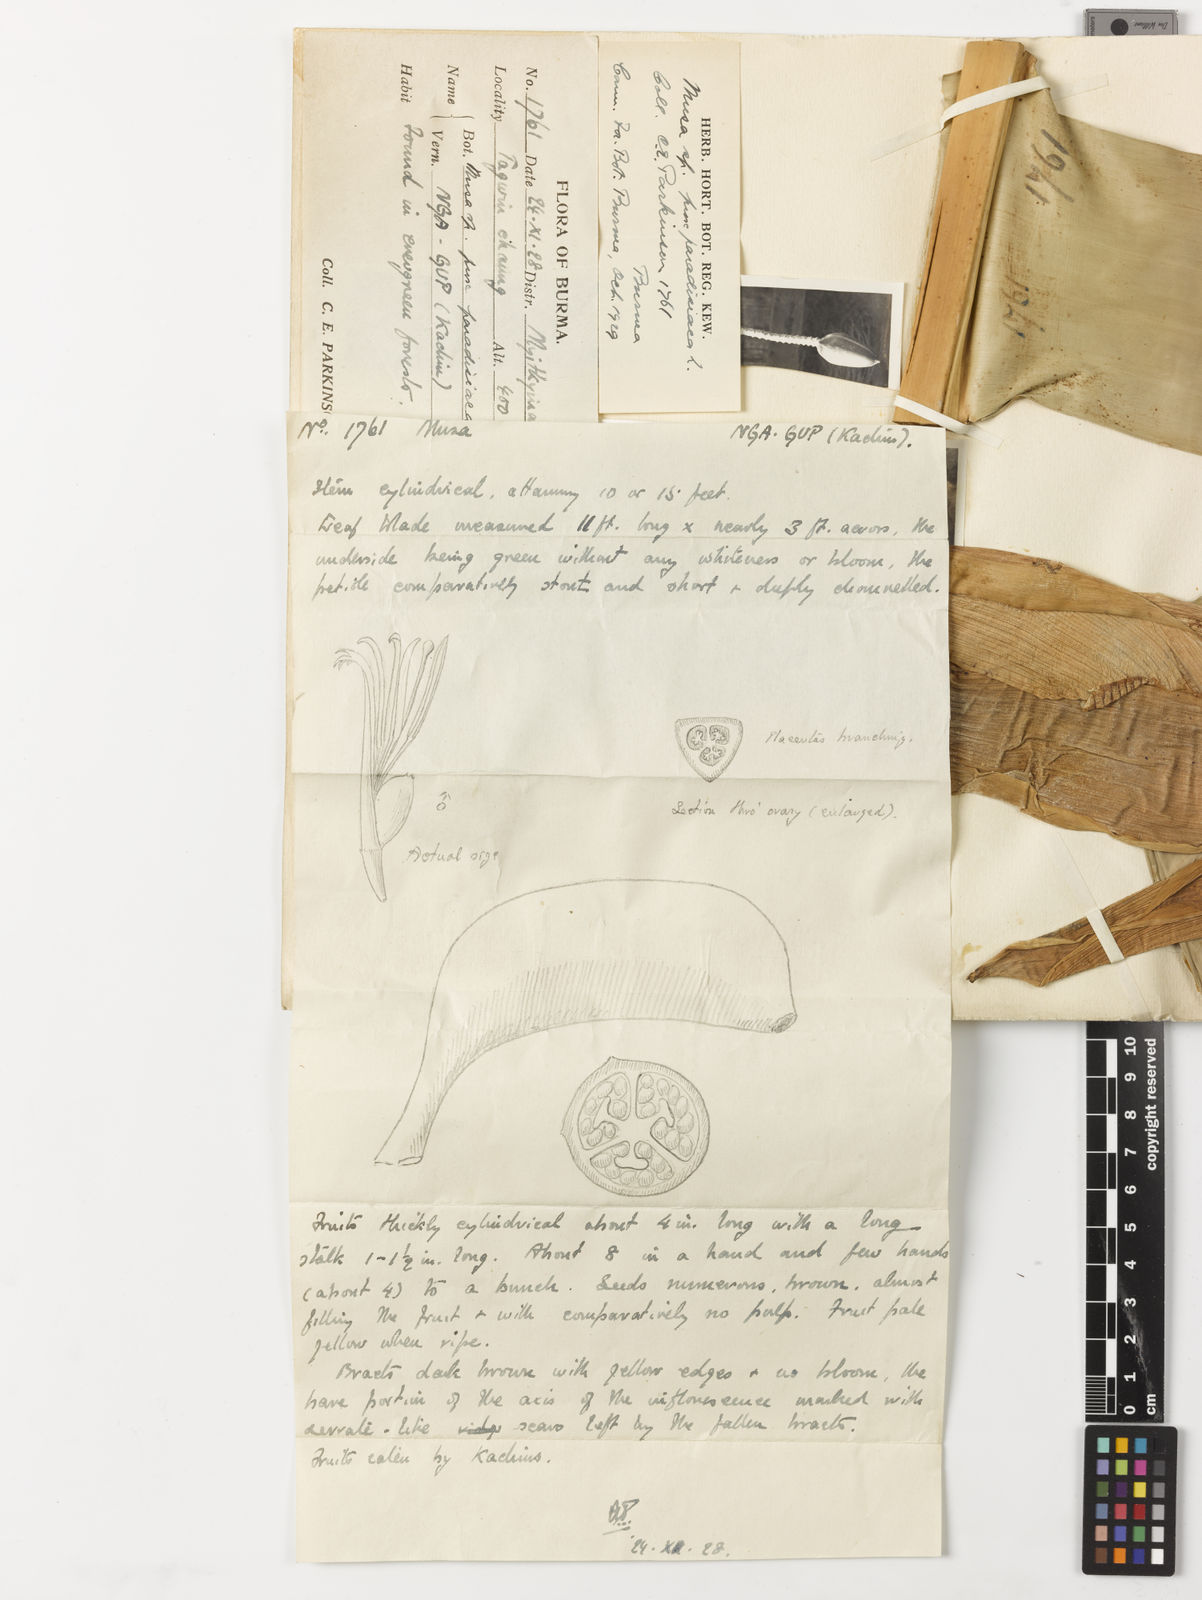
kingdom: Plantae
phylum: Tracheophyta
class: Liliopsida
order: Zingiberales
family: Musaceae
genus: Musa
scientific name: Musa
